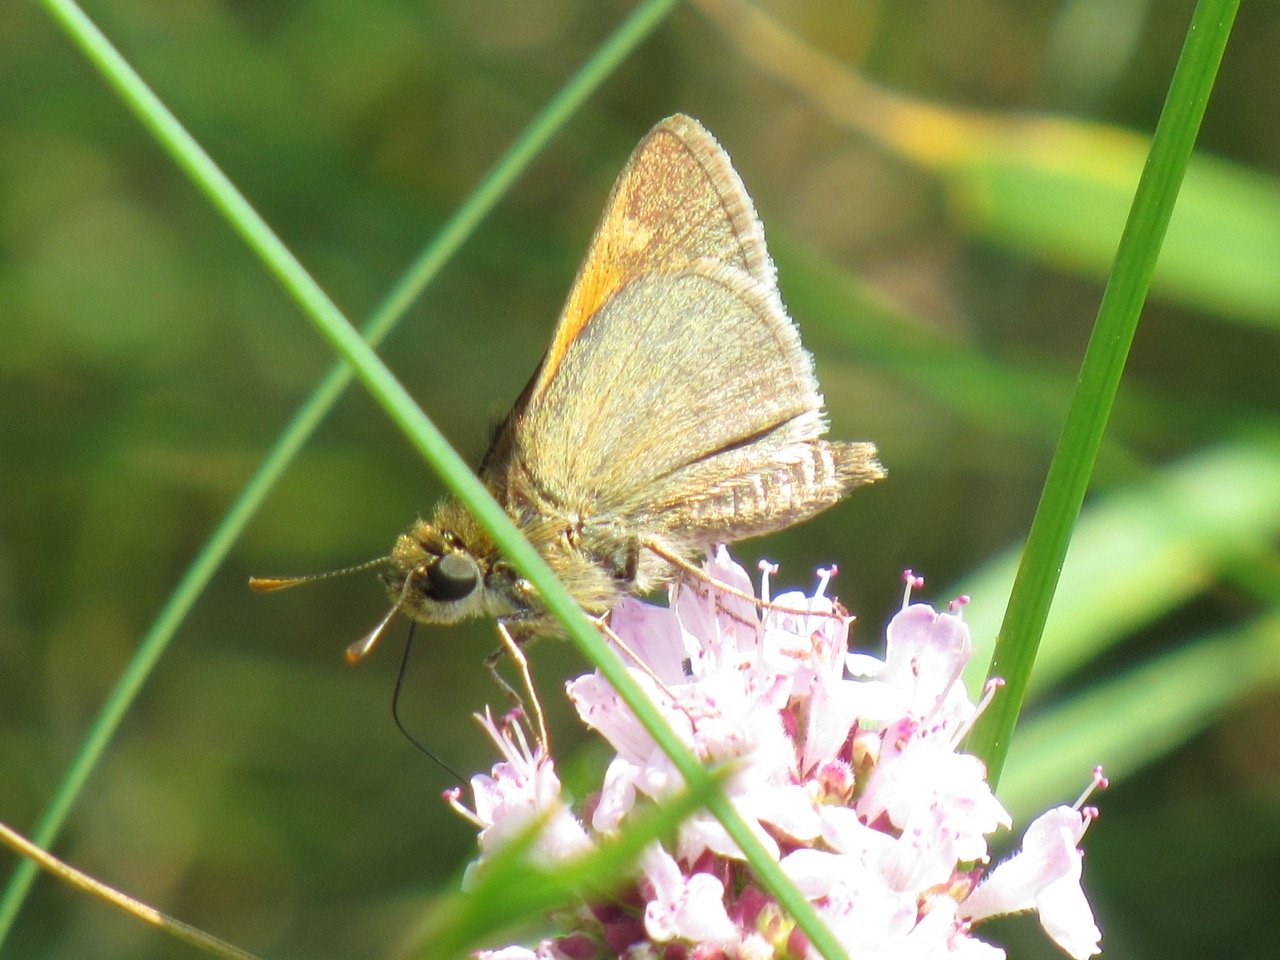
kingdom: Animalia
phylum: Arthropoda
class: Insecta
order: Lepidoptera
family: Hesperiidae
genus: Polites
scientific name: Polites themistocles
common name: Tawny-edged Skipper
